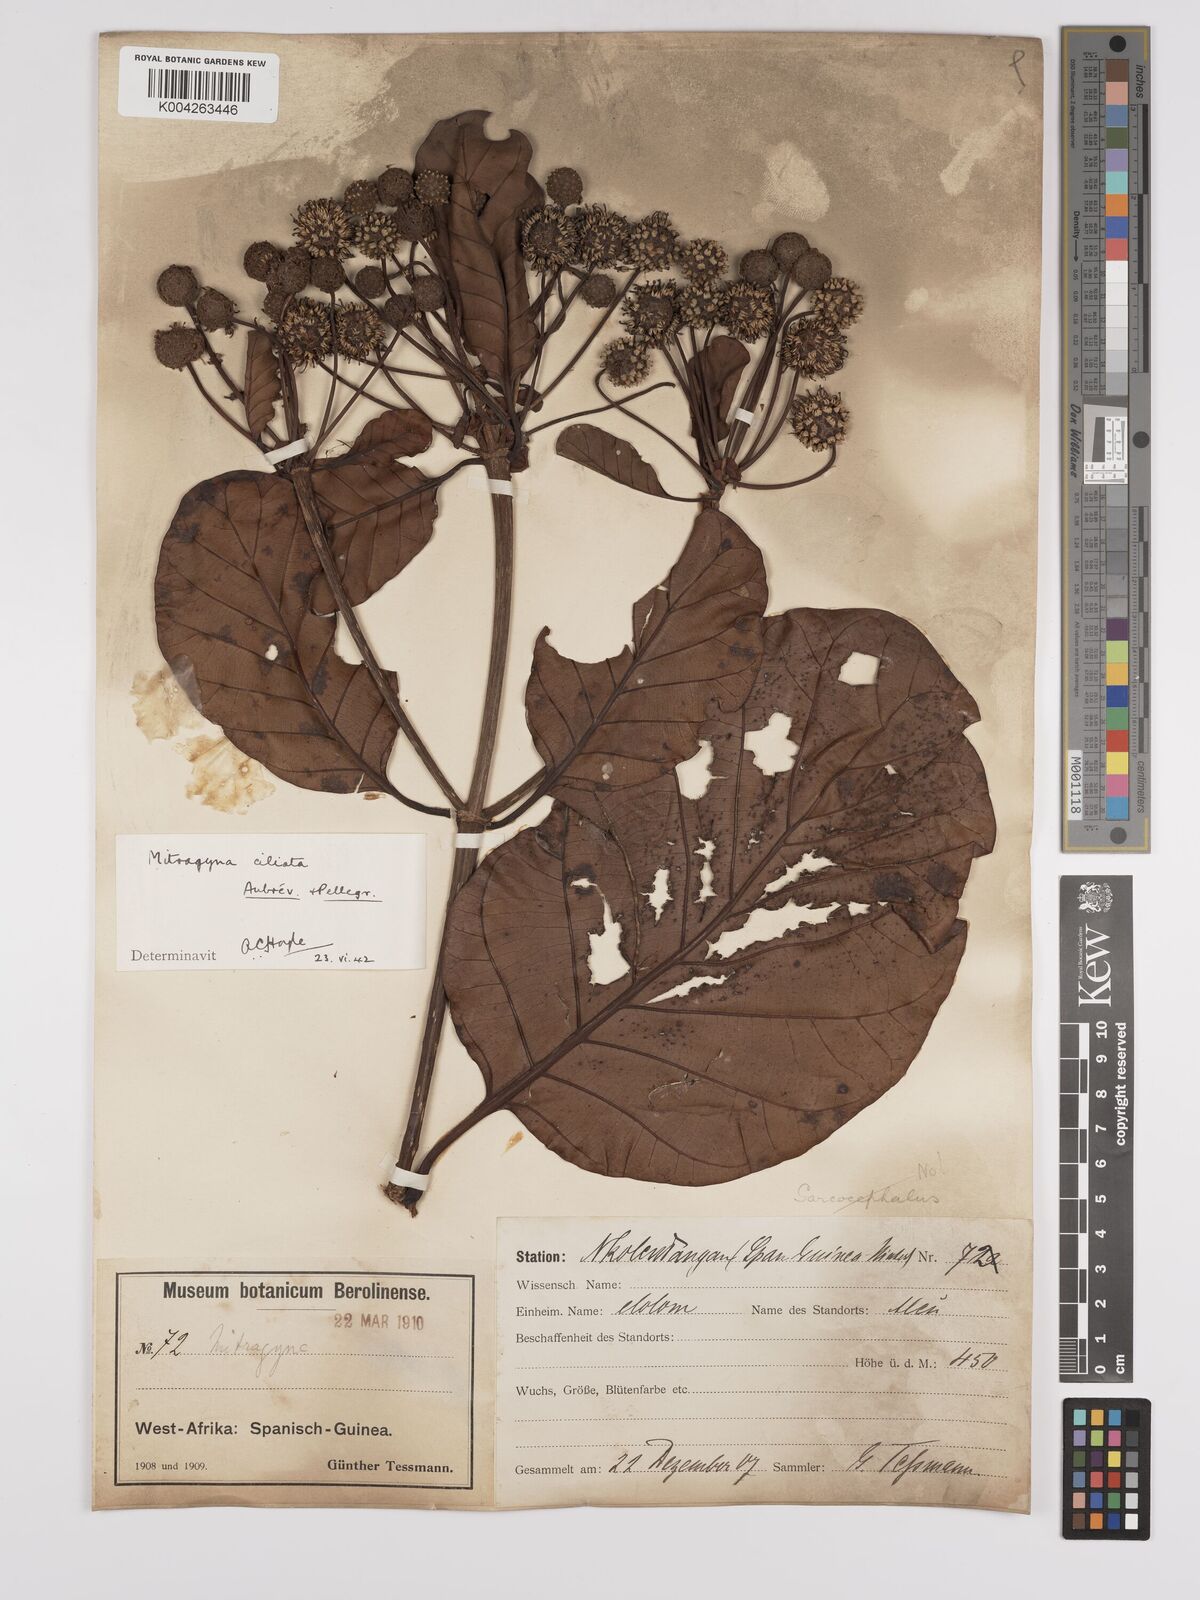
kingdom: Plantae
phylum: Tracheophyta
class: Magnoliopsida
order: Gentianales
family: Rubiaceae
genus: Mitragyna
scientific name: Mitragyna stipulosa
